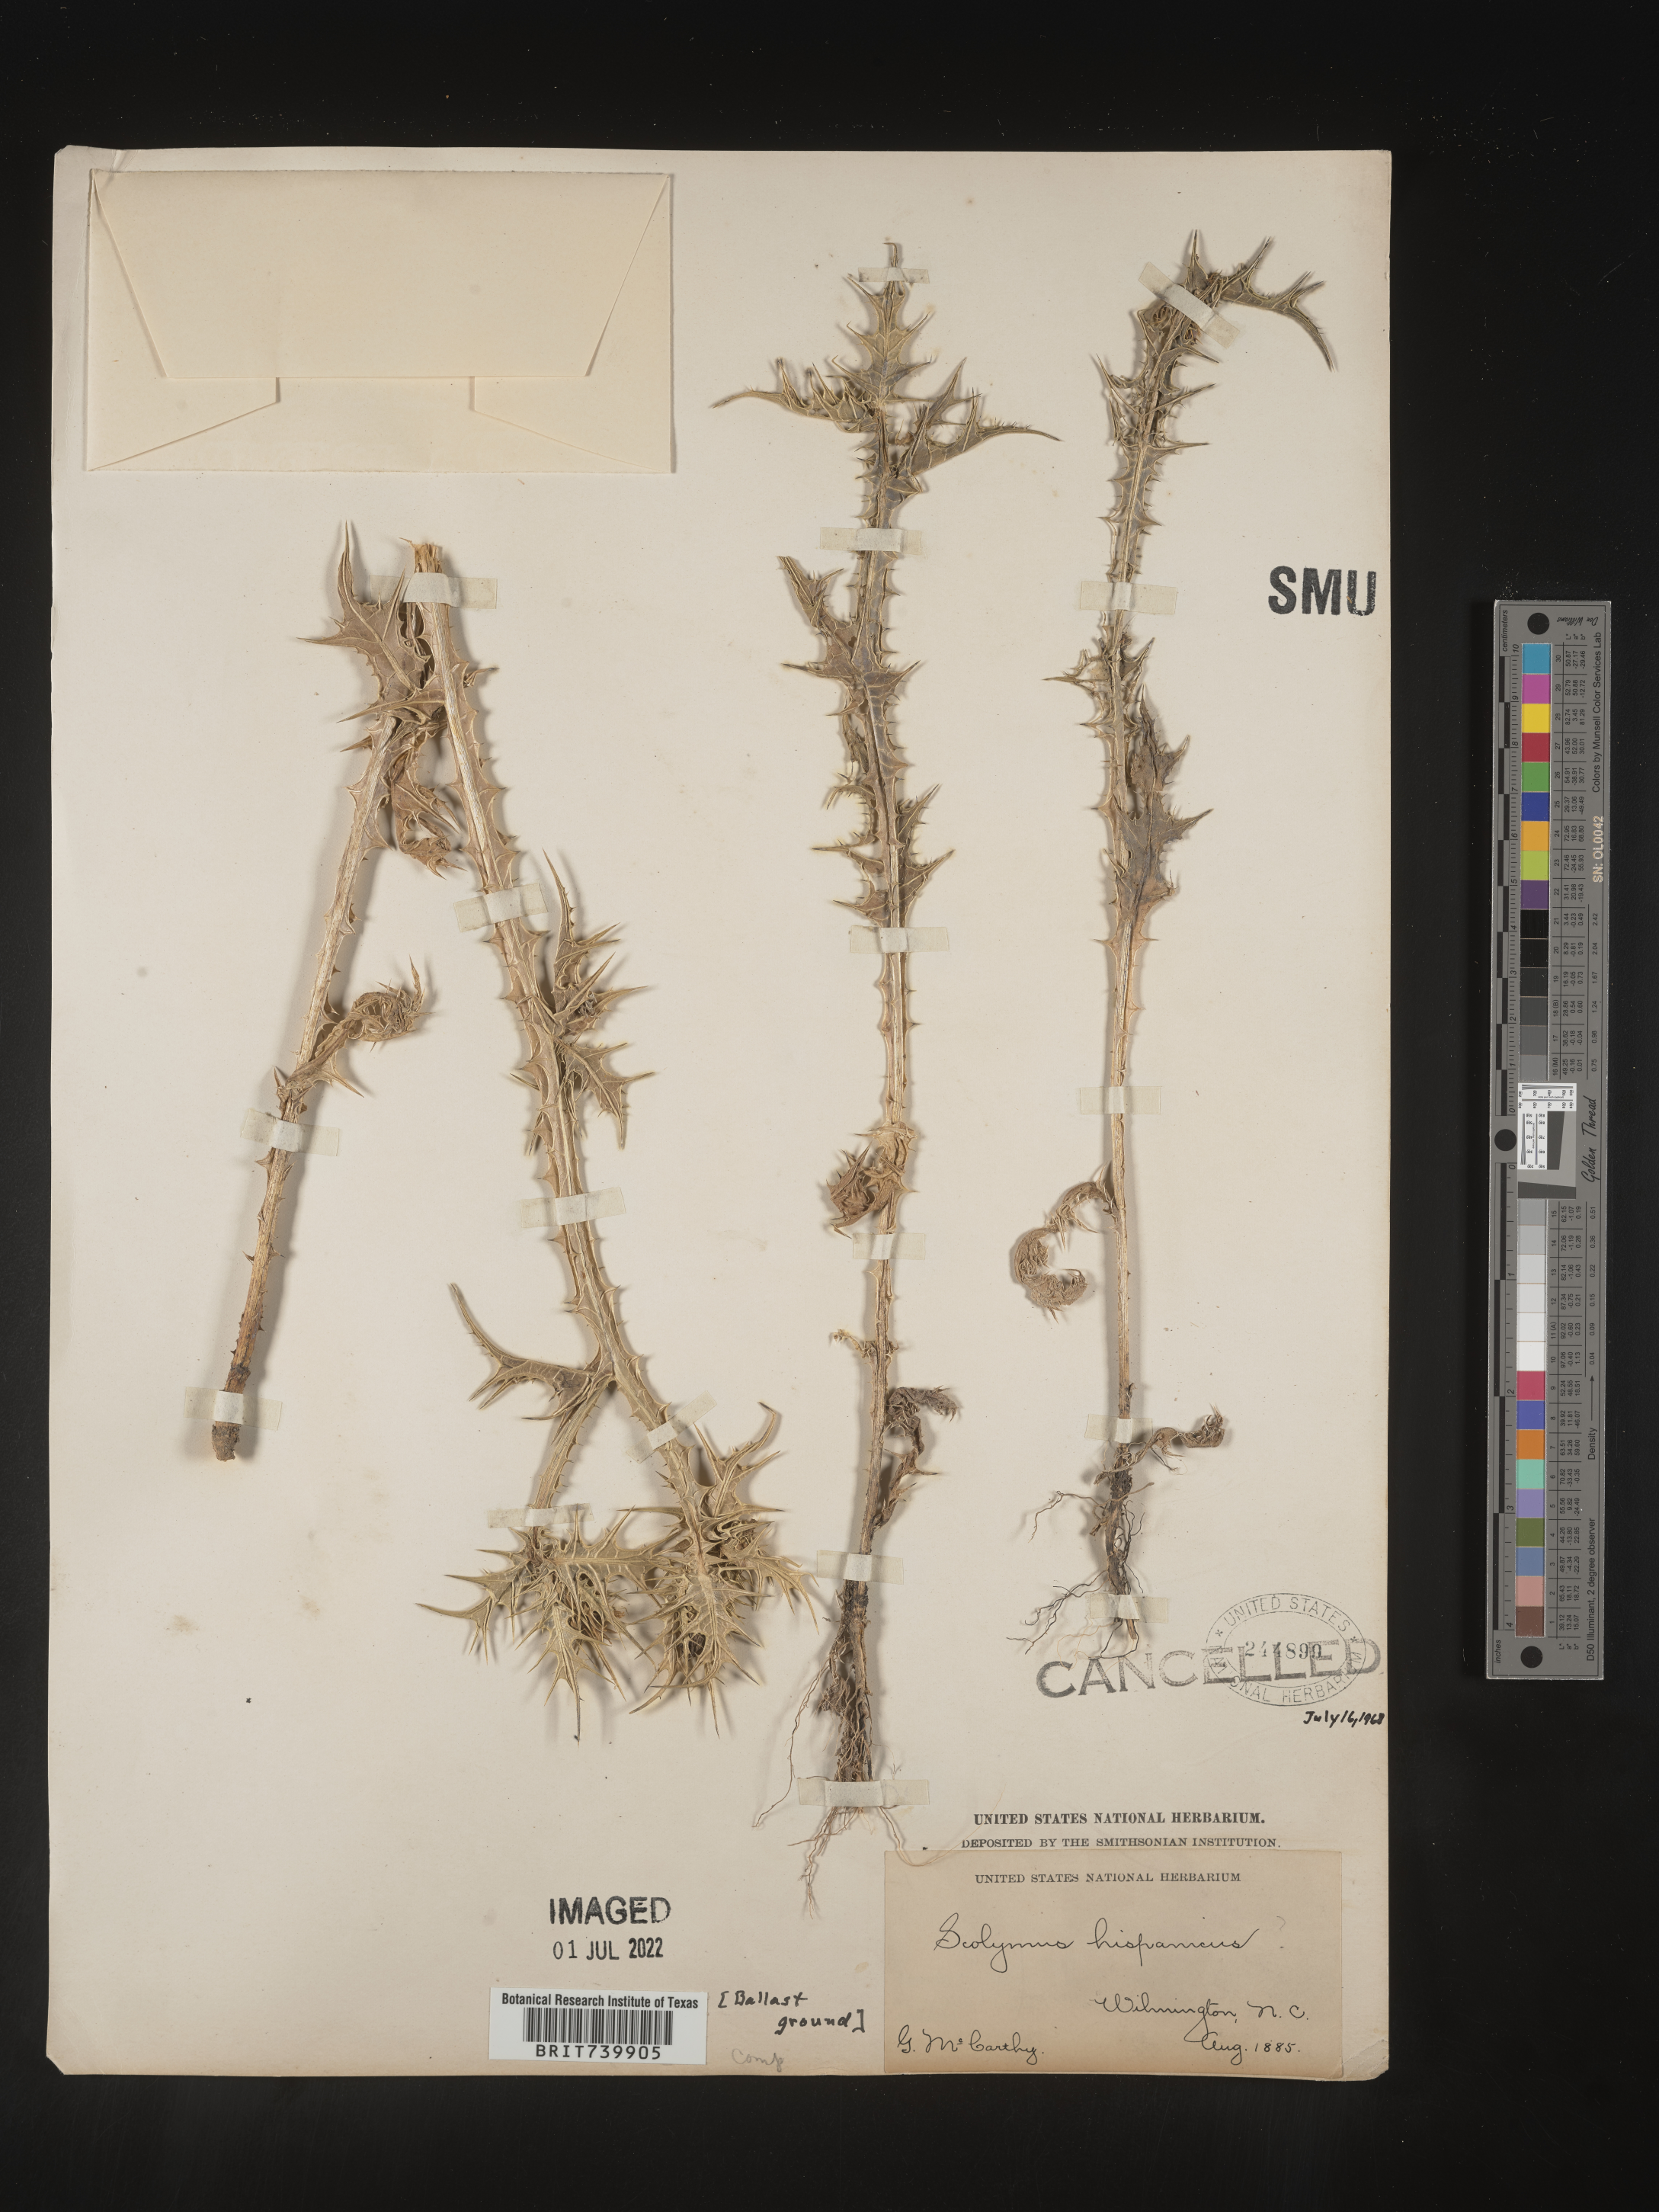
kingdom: Plantae
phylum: Tracheophyta
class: Magnoliopsida
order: Asterales
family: Asteraceae
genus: Scolymus
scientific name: Scolymus
